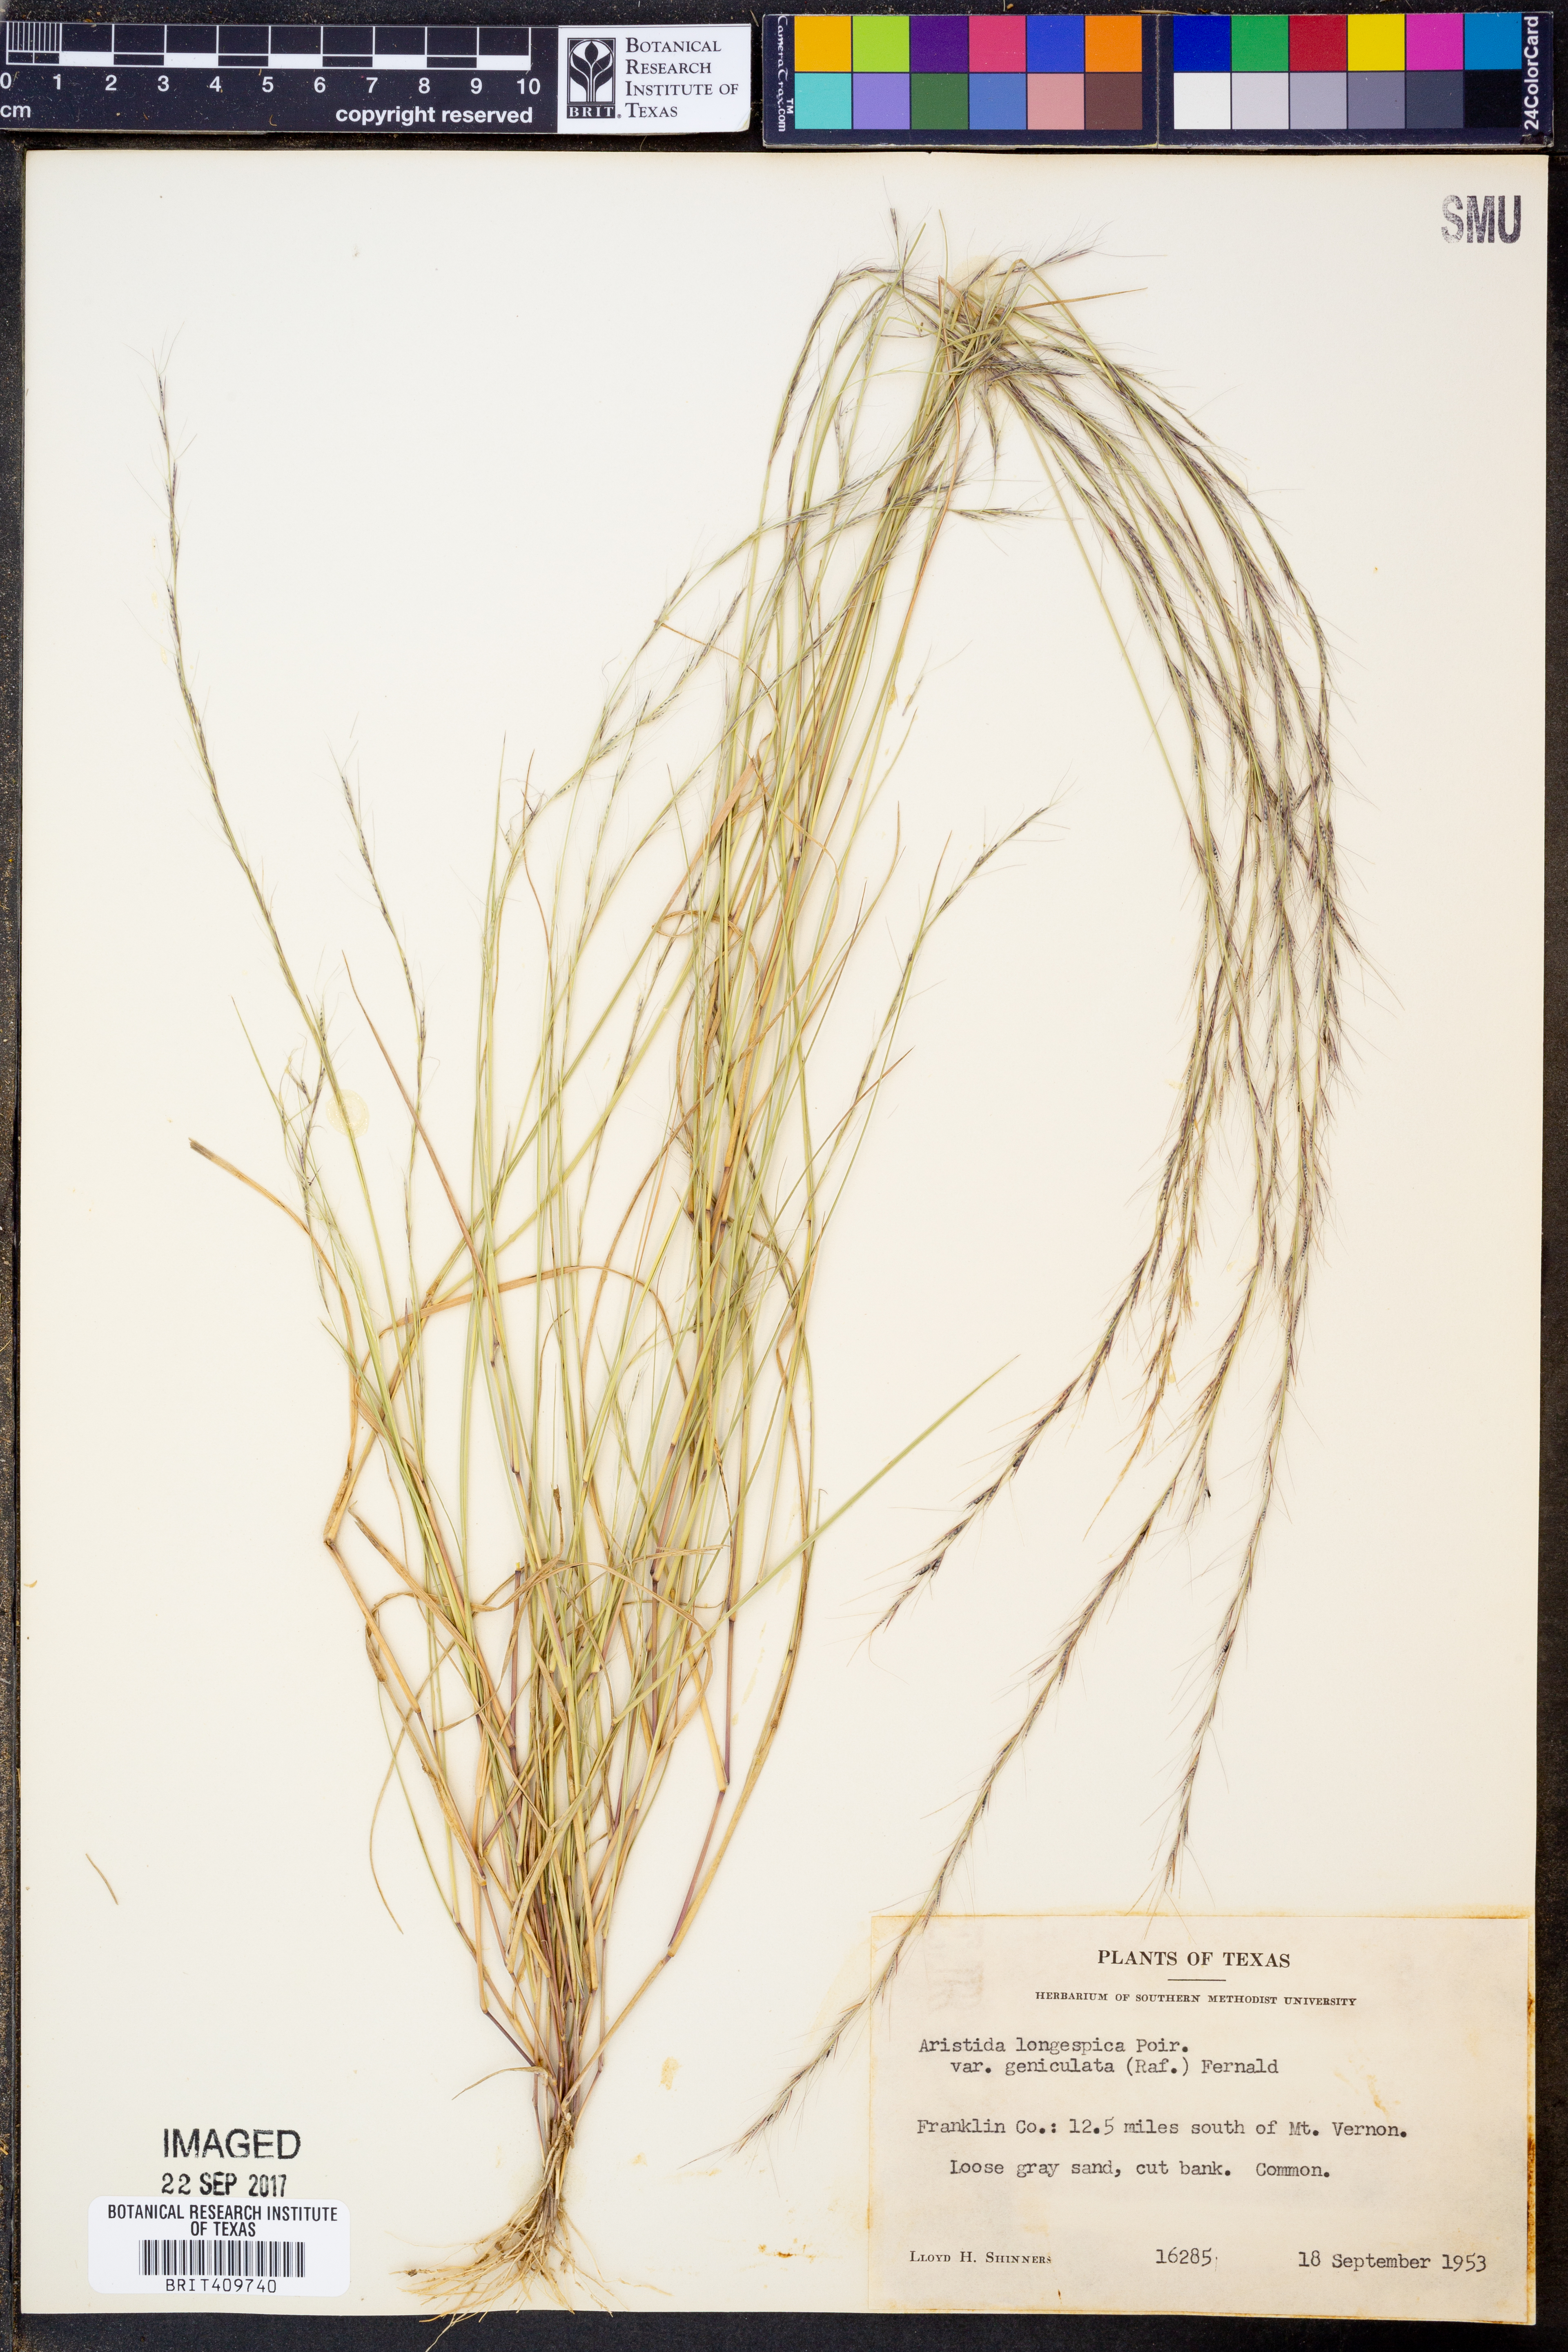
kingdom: Plantae
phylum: Tracheophyta
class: Liliopsida
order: Poales
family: Poaceae
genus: Aristida
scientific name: Aristida longespica
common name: Long-spiked triple-awned grass
